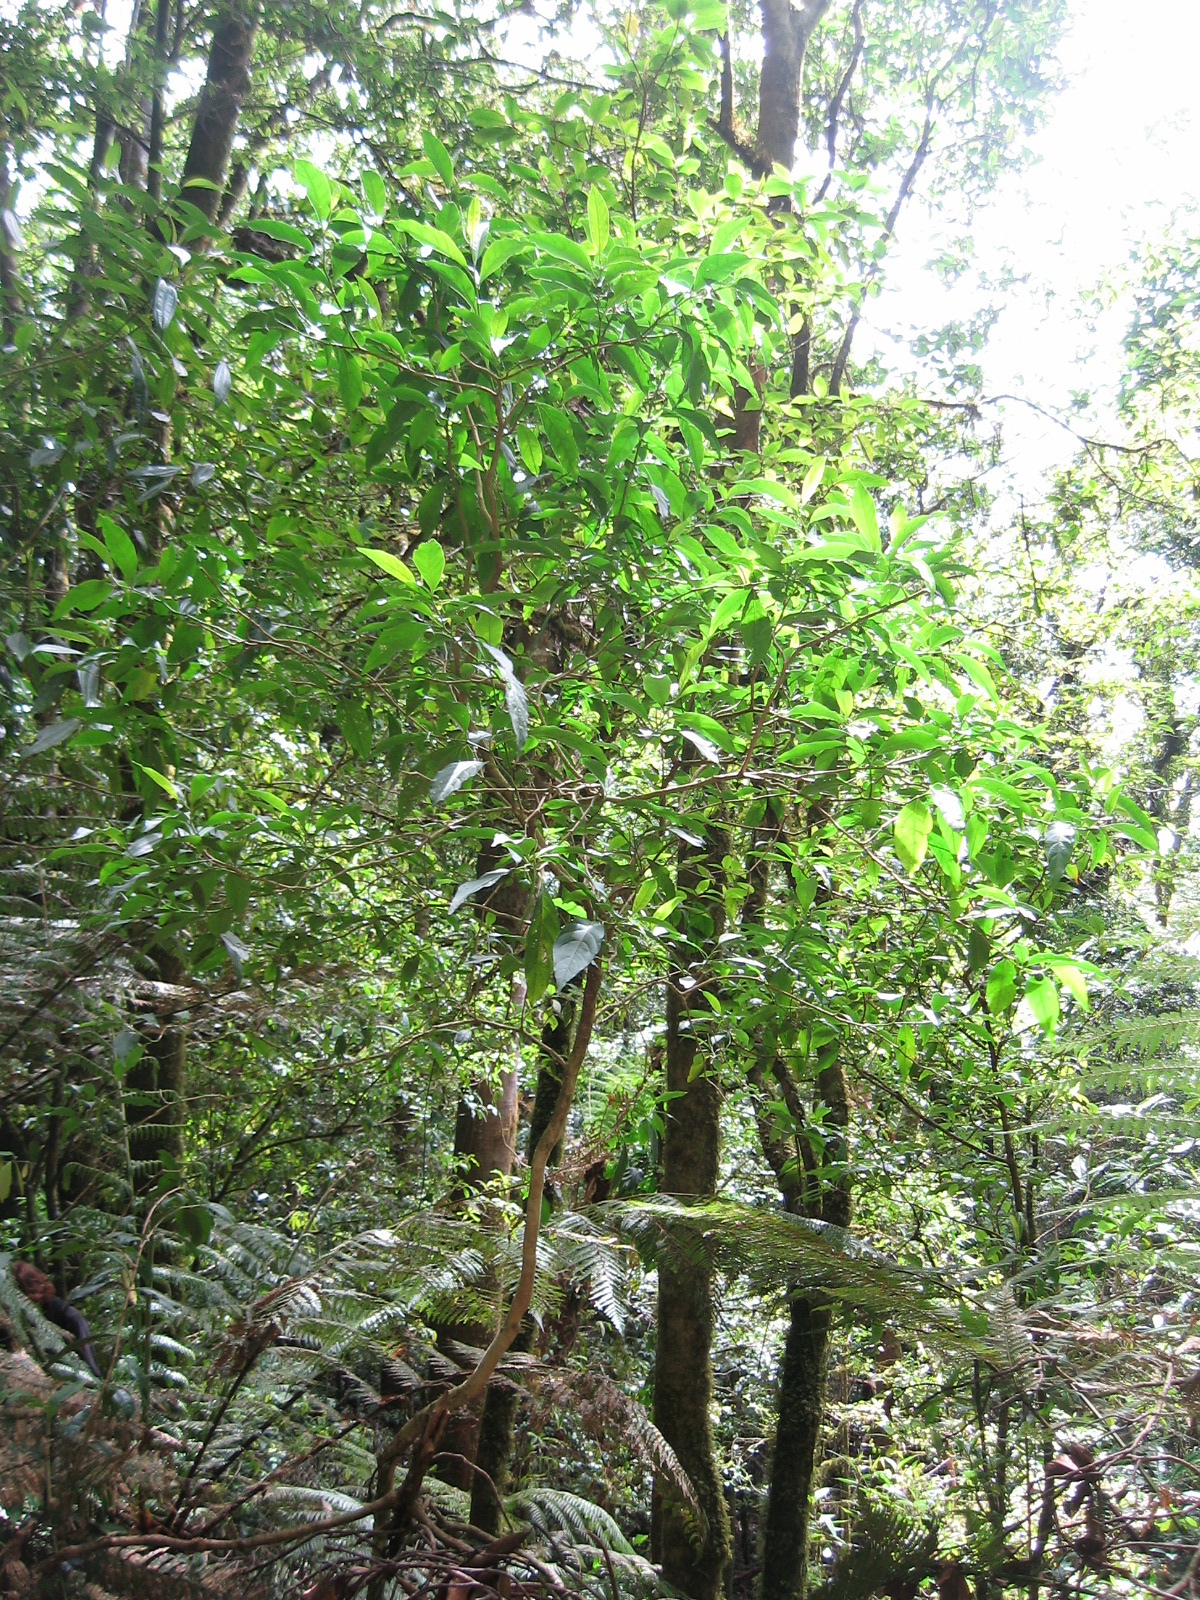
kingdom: Plantae
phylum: Tracheophyta
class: Magnoliopsida
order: Solanales
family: Solanaceae
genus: Solanum
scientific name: Solanum aphyodendron
